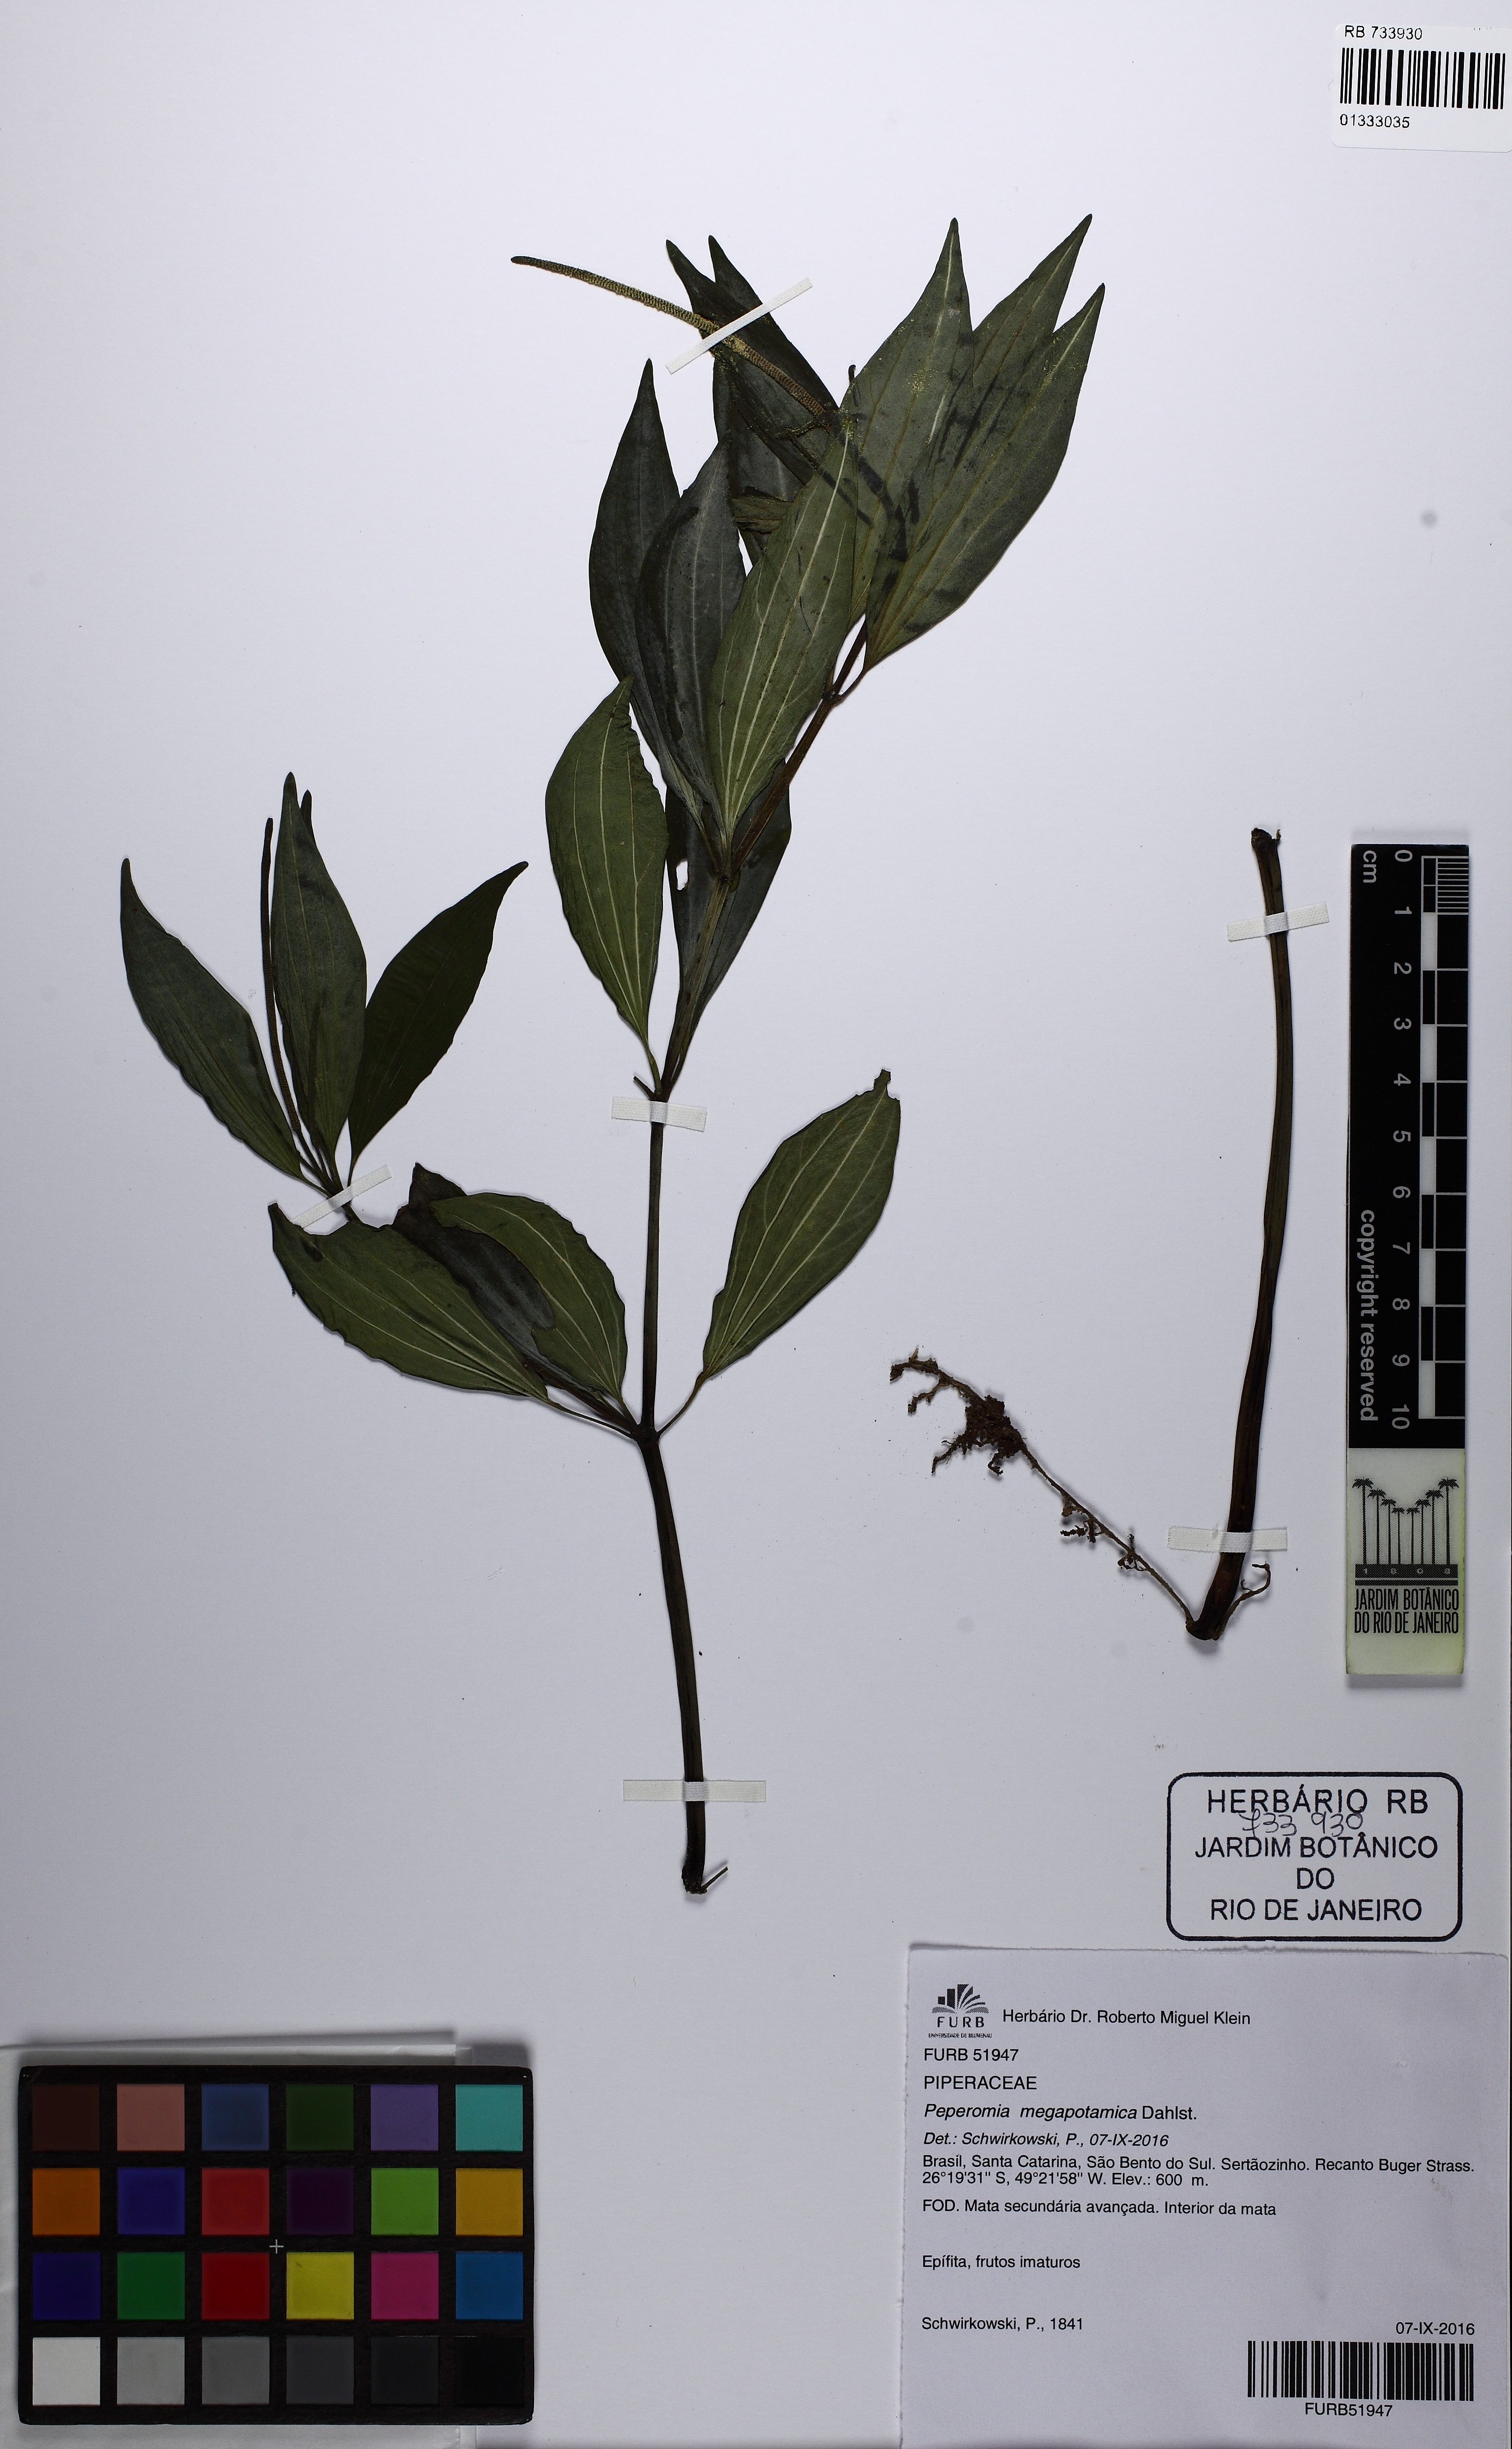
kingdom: Plantae
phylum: Tracheophyta
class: Magnoliopsida
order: Piperales
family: Piperaceae
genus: Peperomia
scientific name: Peperomia megapotamica
